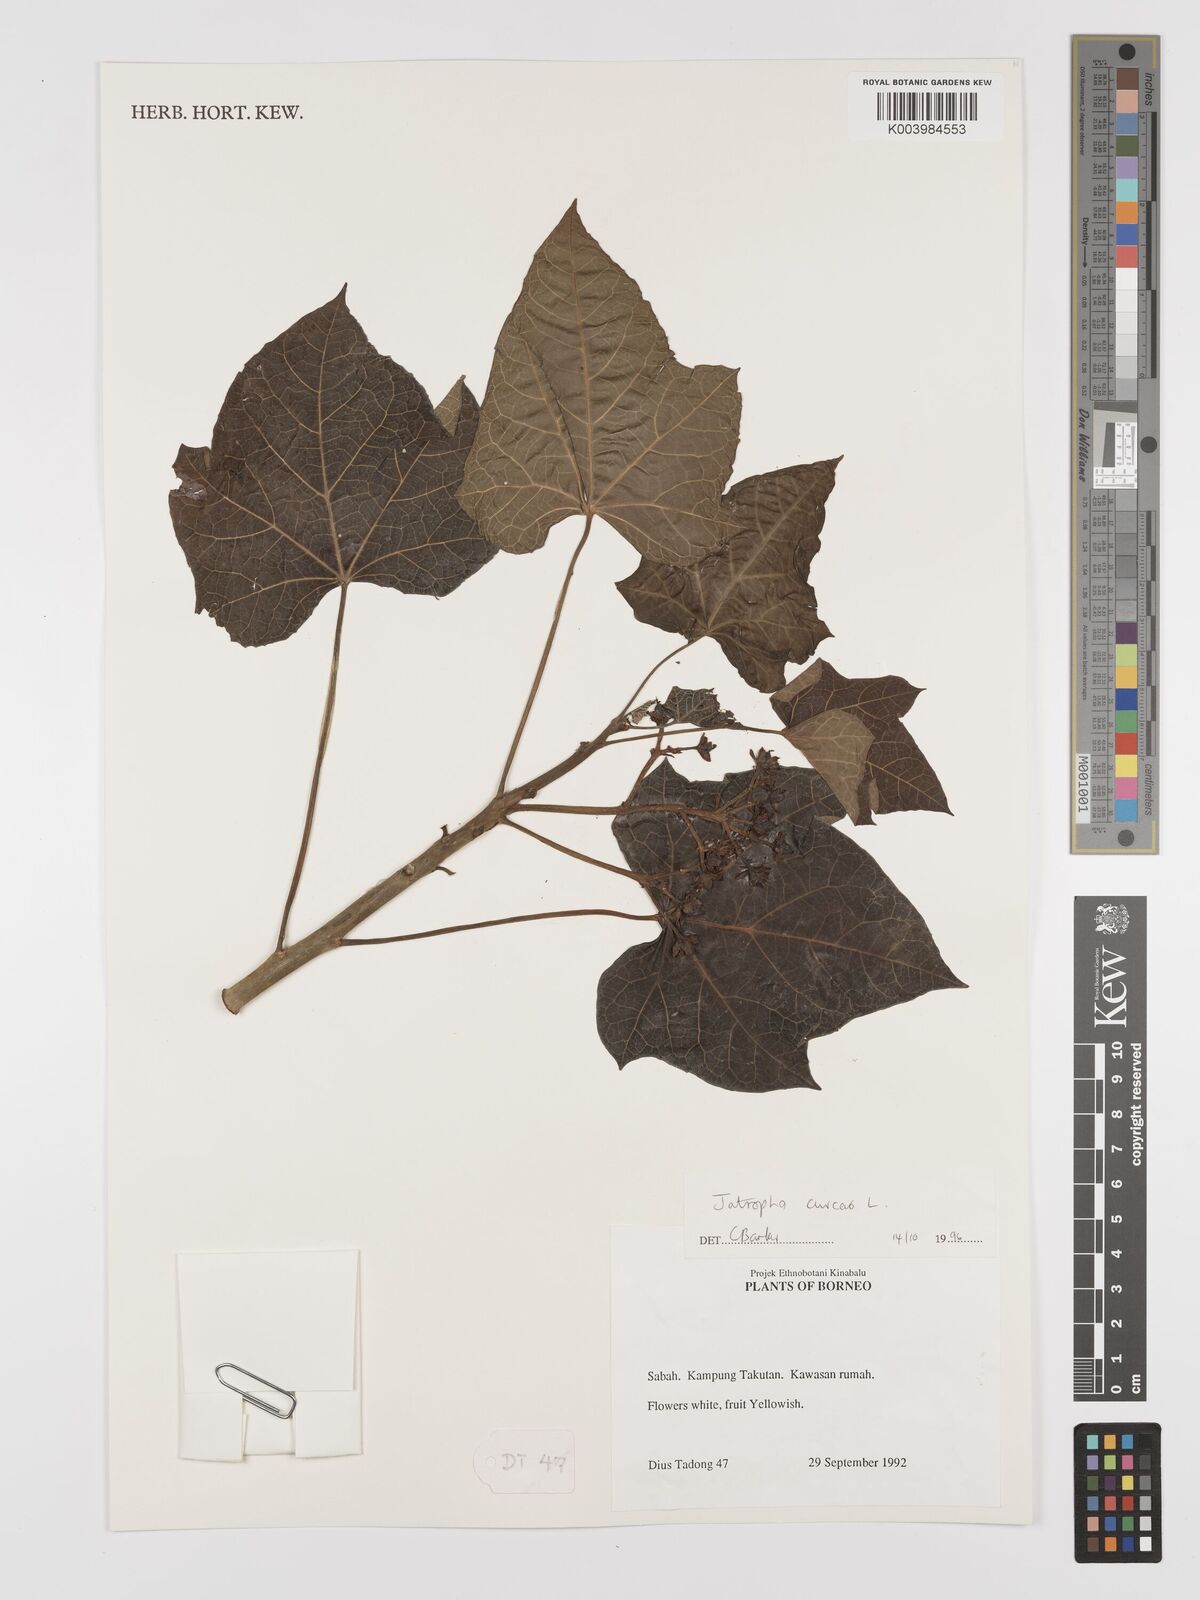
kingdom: Plantae
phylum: Tracheophyta
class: Magnoliopsida
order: Malpighiales
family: Euphorbiaceae
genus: Jatropha
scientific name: Jatropha curcas
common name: Barbados nut
